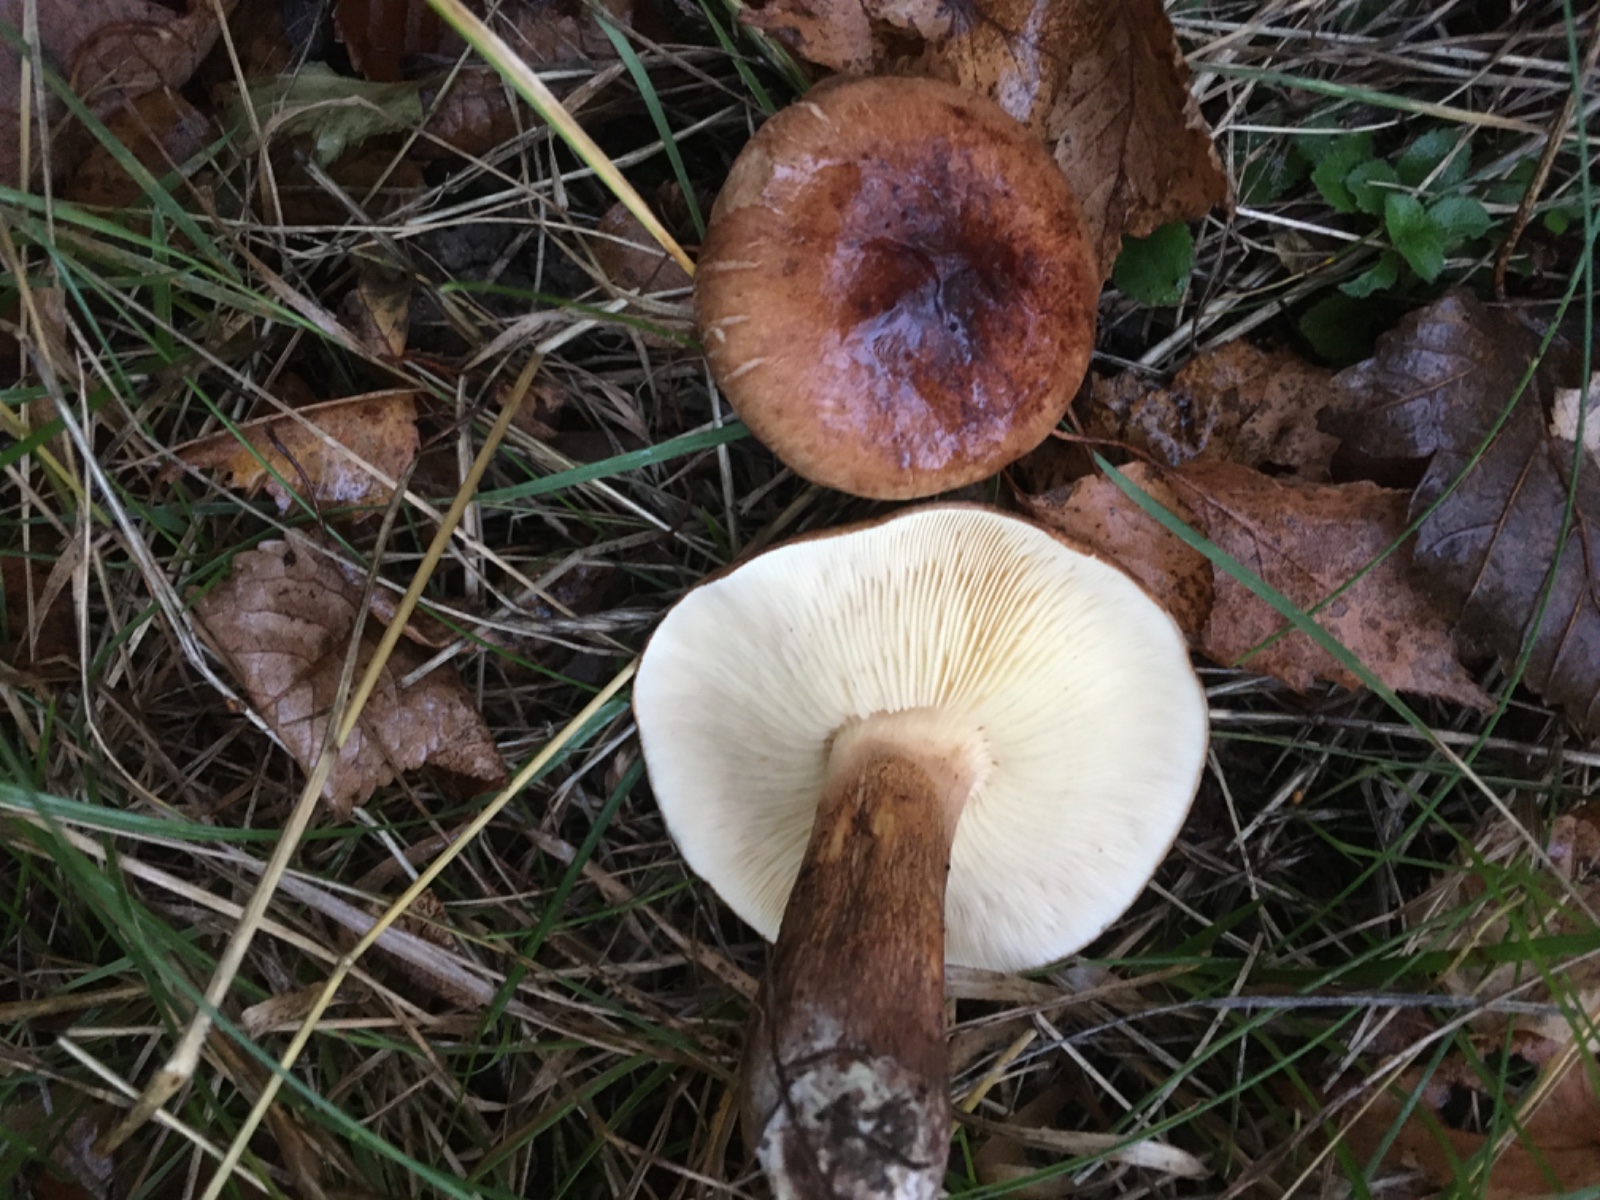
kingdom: Fungi
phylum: Basidiomycota
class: Agaricomycetes
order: Agaricales
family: Tricholomataceae
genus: Tricholoma
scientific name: Tricholoma fulvum
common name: birke-ridderhat
